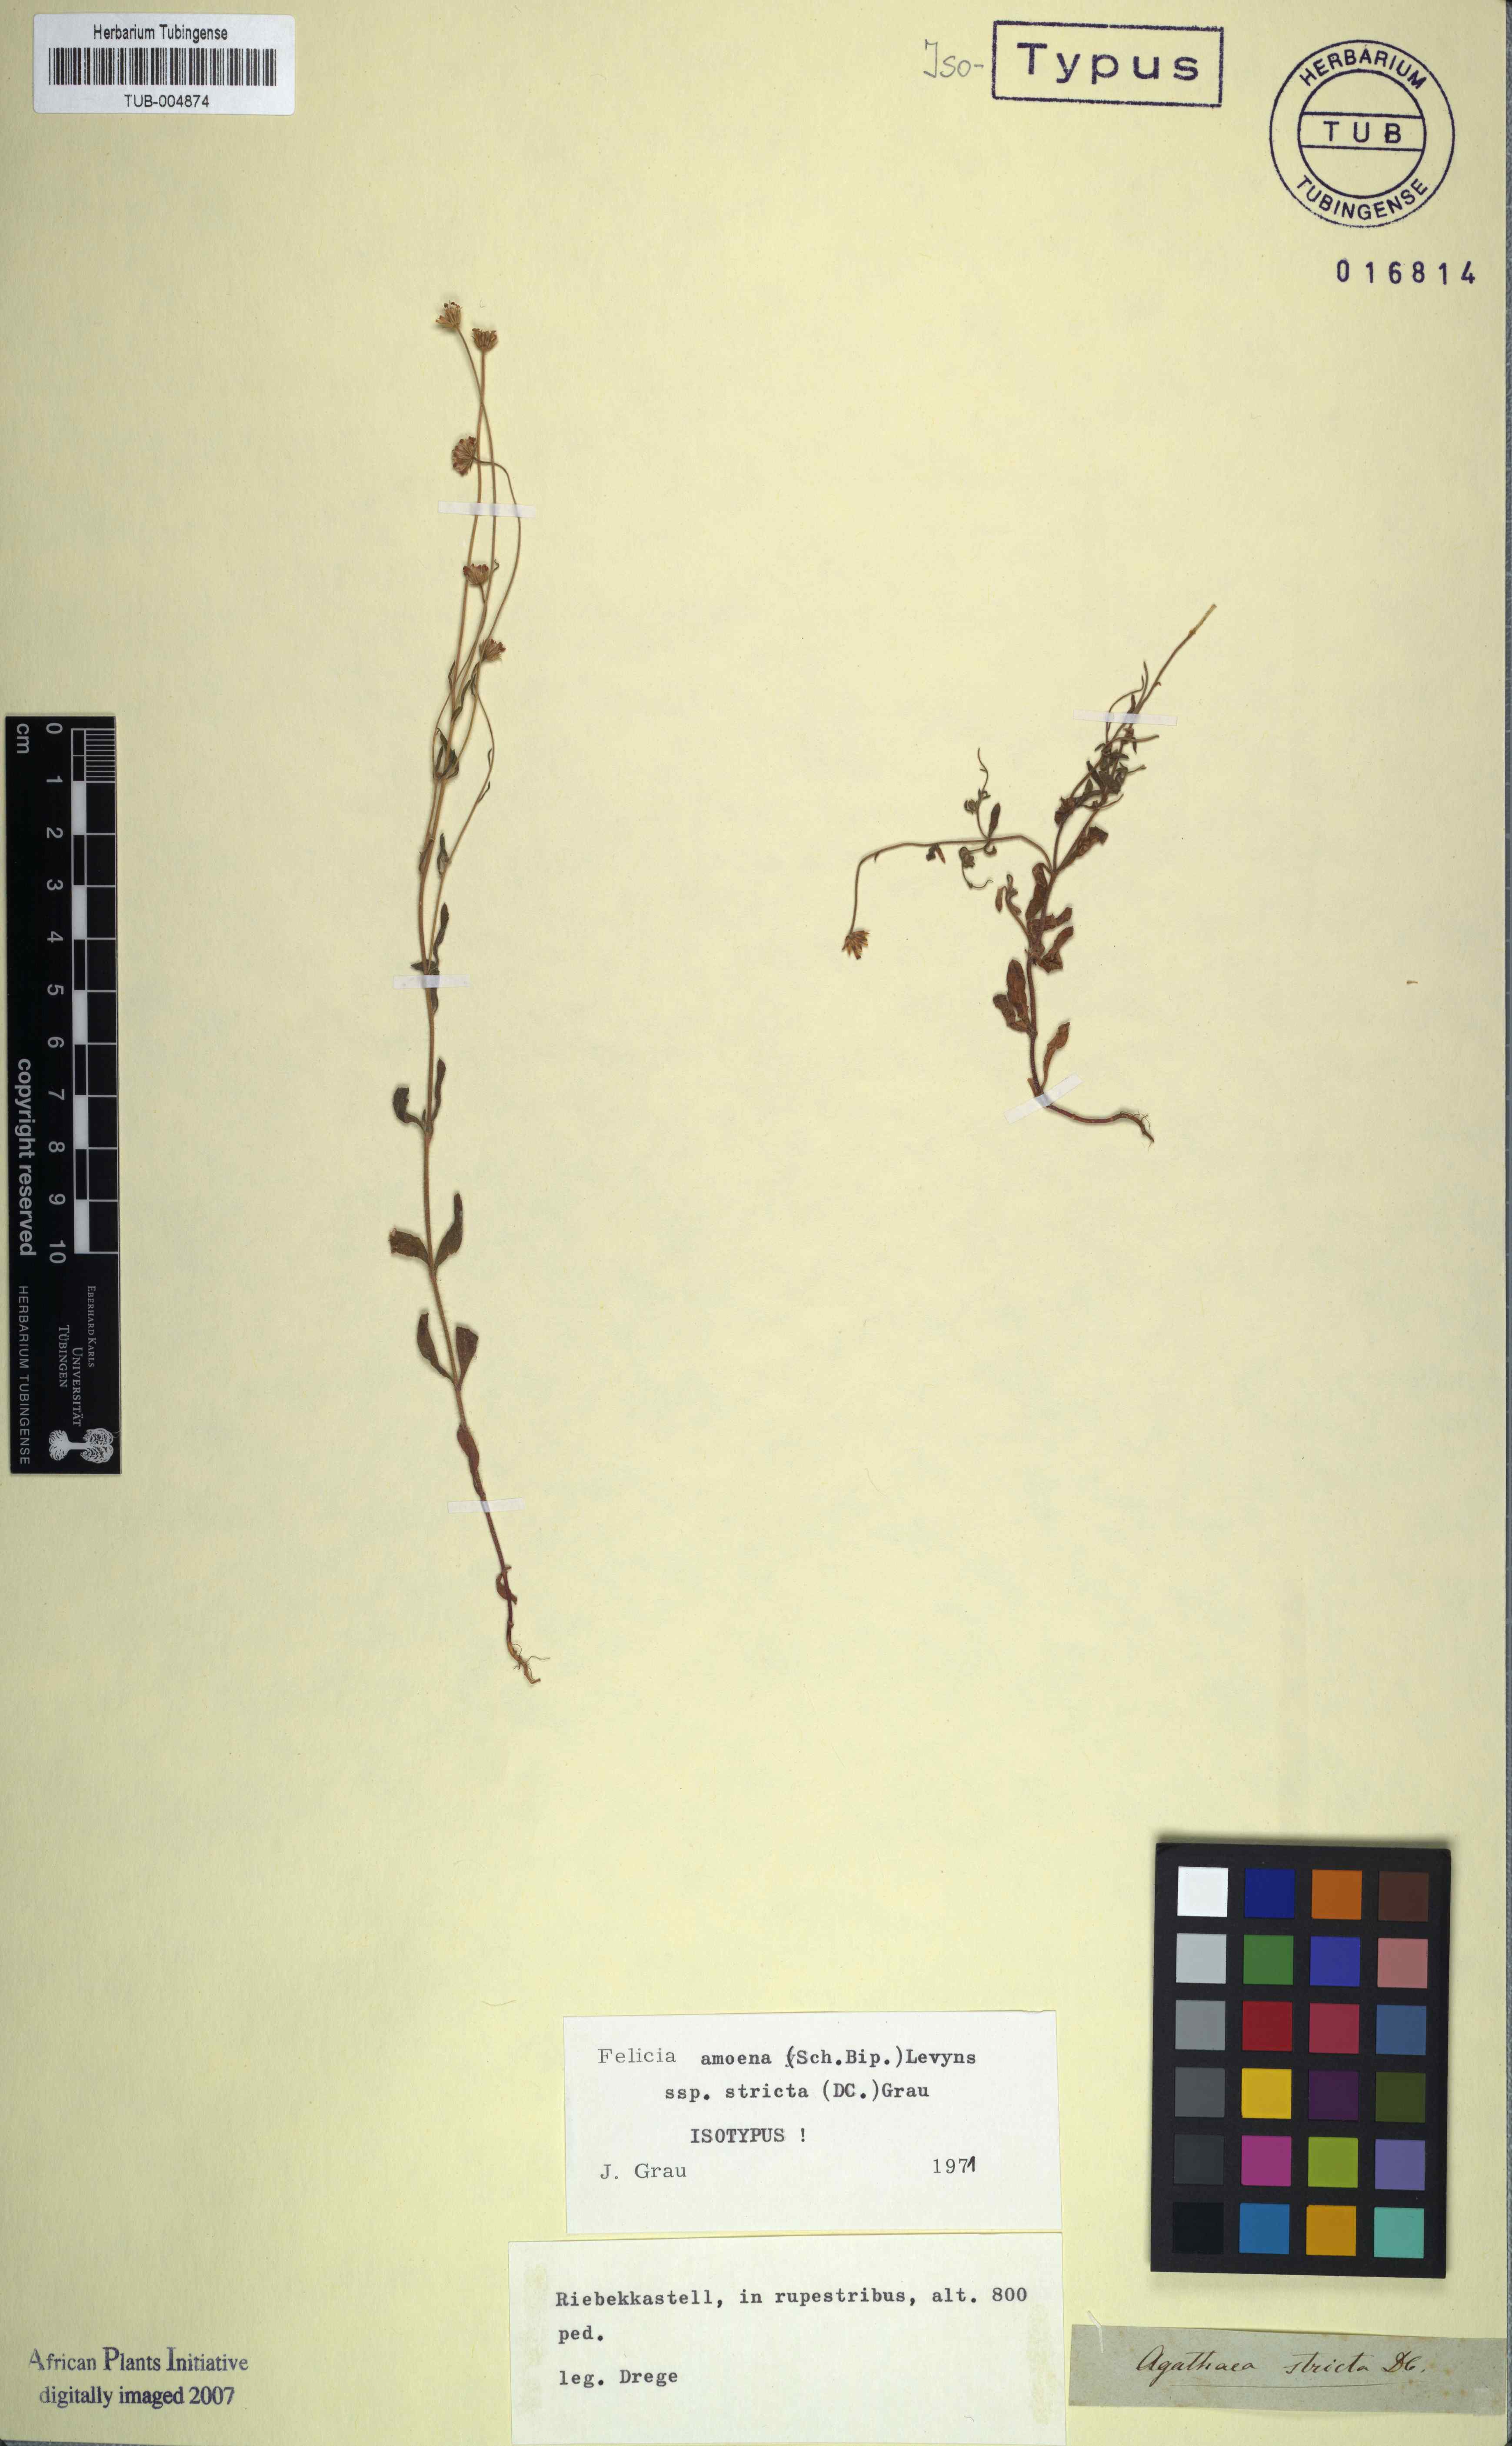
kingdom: Plantae
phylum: Tracheophyta
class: Magnoliopsida
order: Asterales
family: Asteraceae
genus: Felicia
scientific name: Felicia amoena
